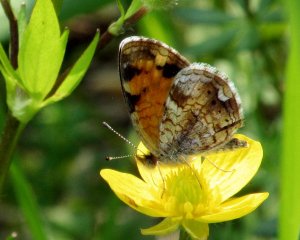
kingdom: Animalia
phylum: Arthropoda
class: Insecta
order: Lepidoptera
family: Nymphalidae
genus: Phyciodes
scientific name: Phyciodes tharos
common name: Pearl Crescent
